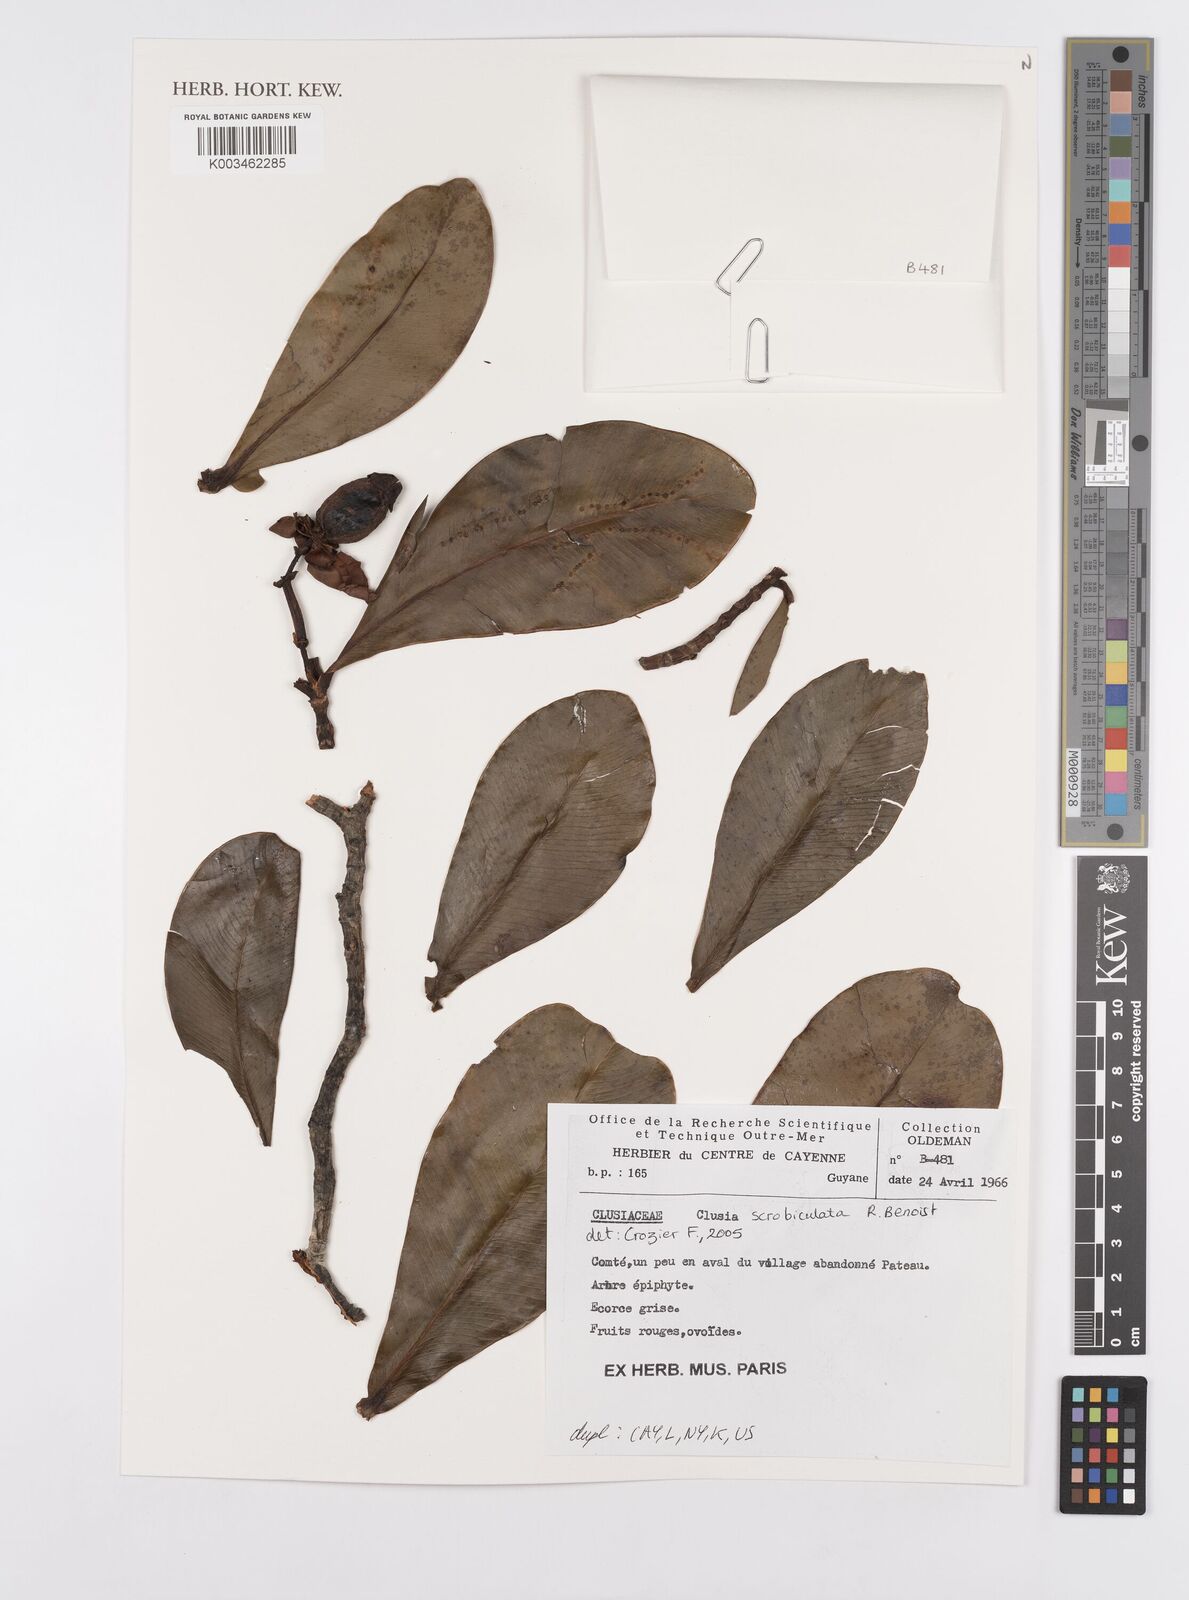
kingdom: Plantae
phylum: Tracheophyta
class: Magnoliopsida
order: Malpighiales
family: Clusiaceae
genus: Clusia
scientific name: Clusia scrobiculata
